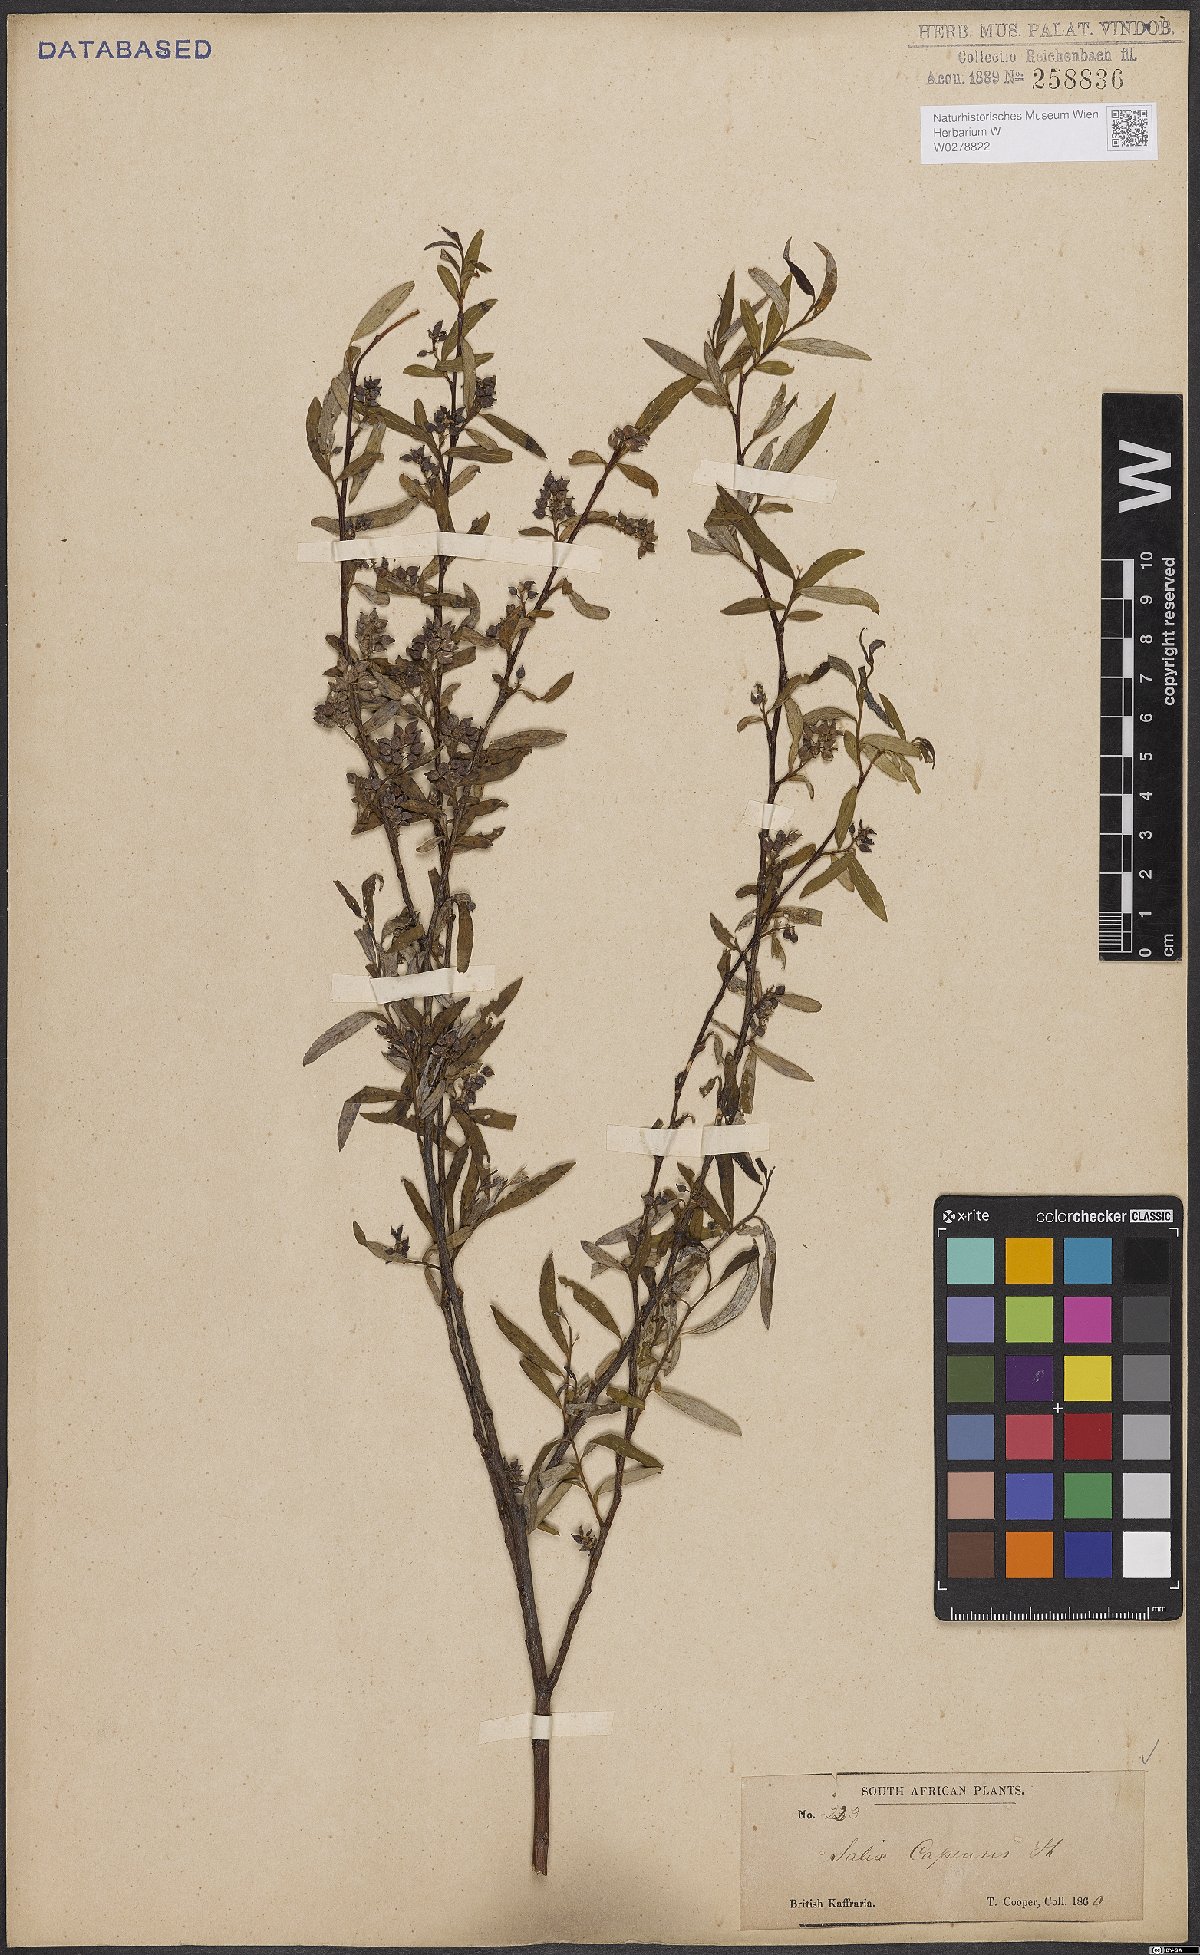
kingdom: Plantae
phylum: Tracheophyta
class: Magnoliopsida
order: Malpighiales
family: Salicaceae
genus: Salix
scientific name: Salix mucronata
